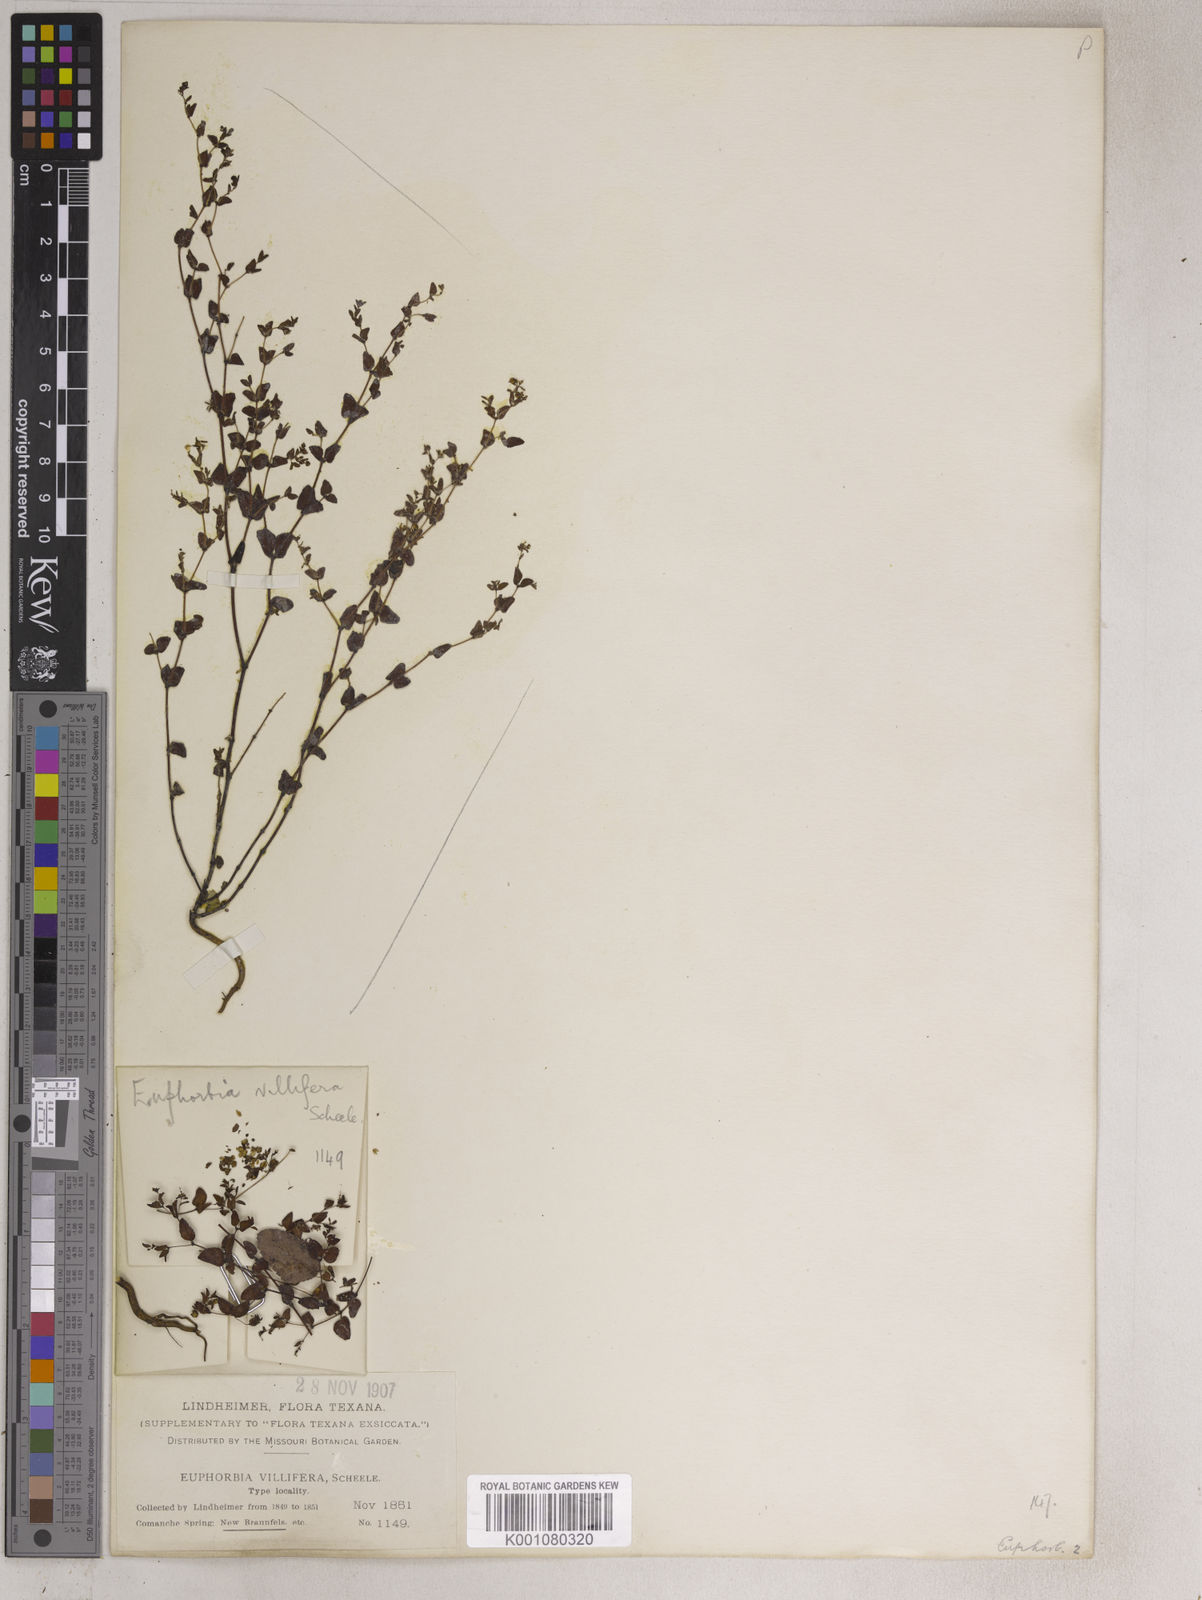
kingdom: Plantae
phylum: Tracheophyta
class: Magnoliopsida
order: Malpighiales
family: Euphorbiaceae
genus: Euphorbia
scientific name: Euphorbia villifera
